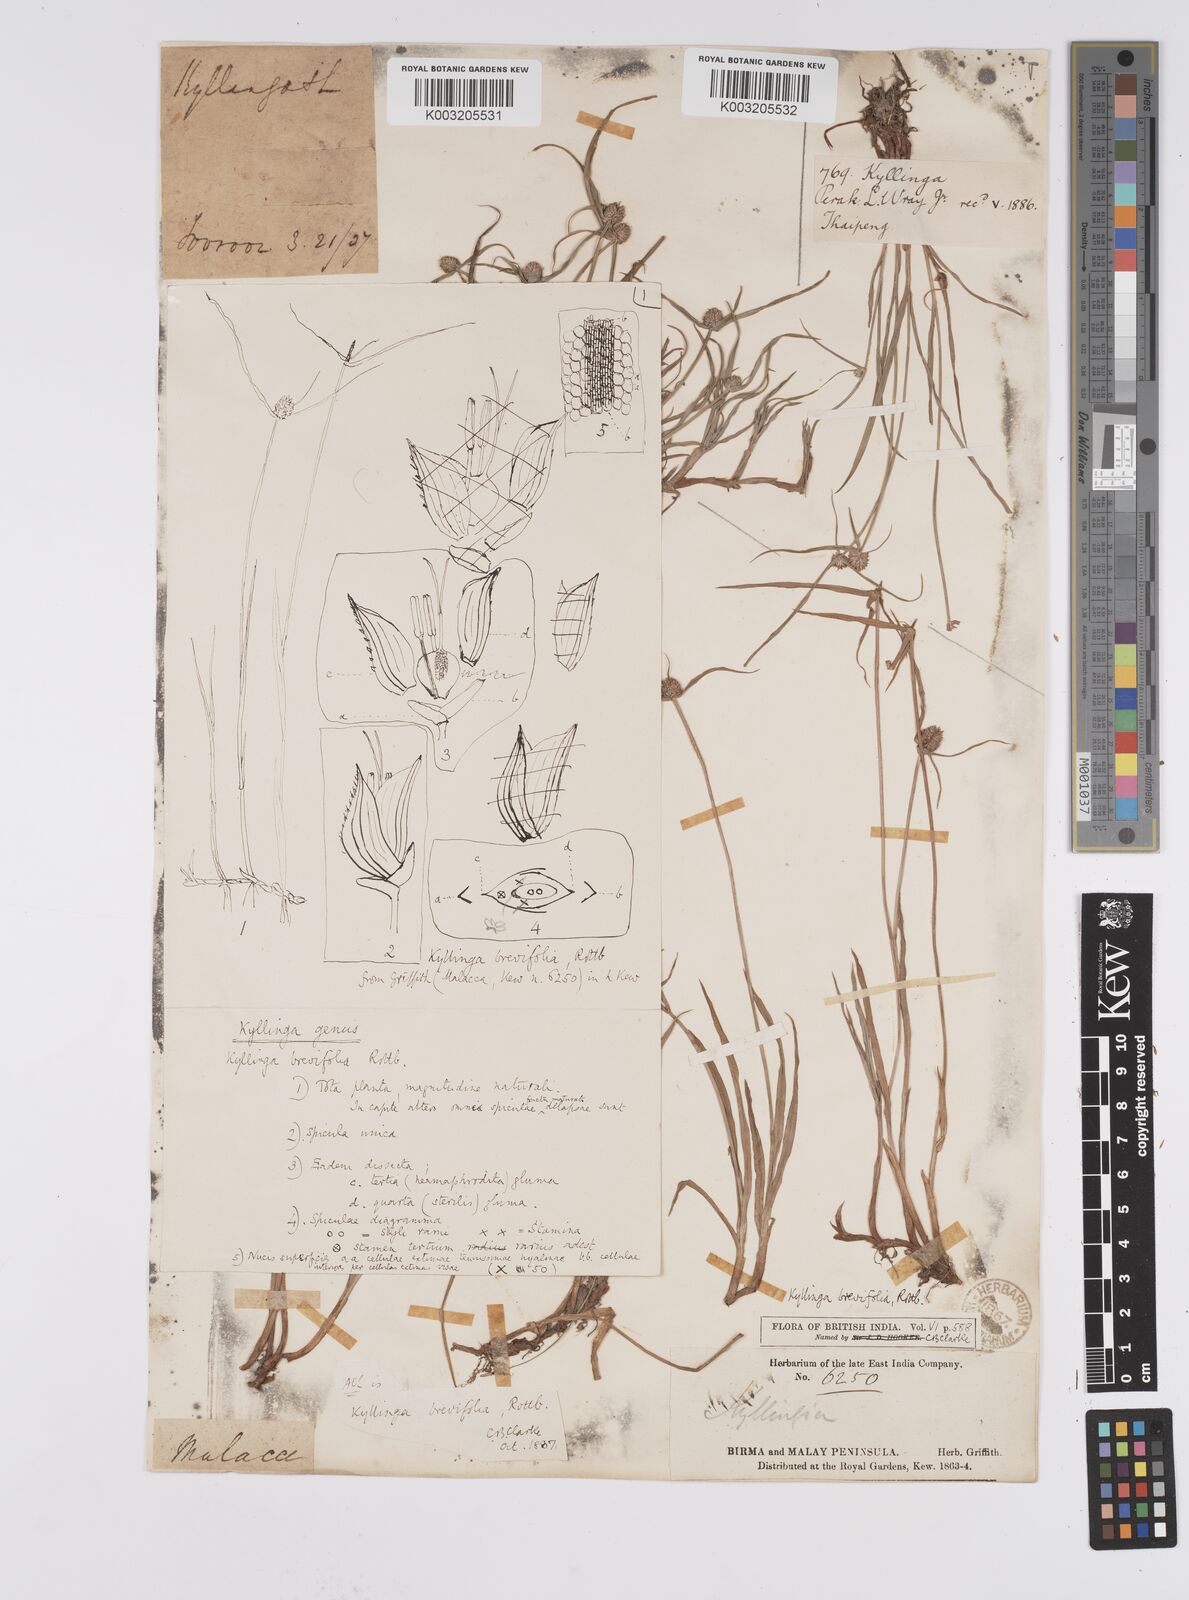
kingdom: Plantae
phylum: Tracheophyta
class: Liliopsida
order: Poales
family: Cyperaceae
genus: Cyperus
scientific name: Cyperus
